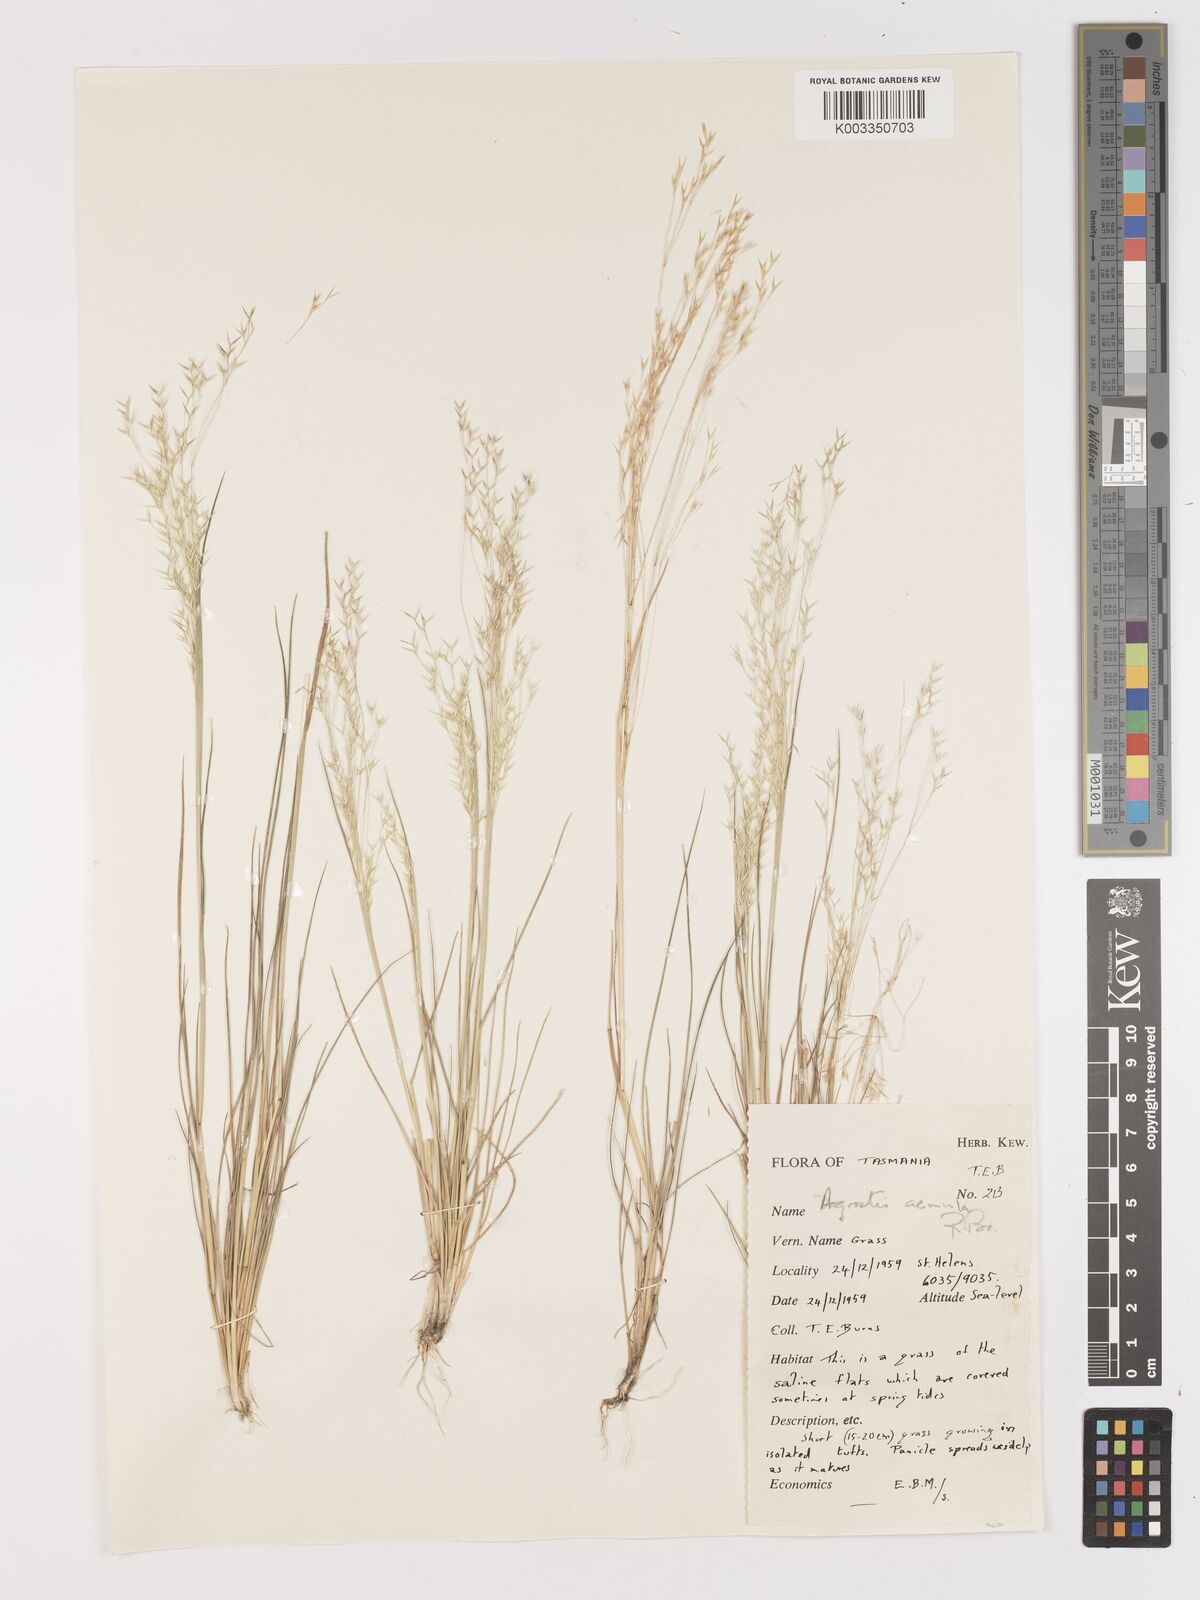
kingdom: Plantae
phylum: Tracheophyta
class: Liliopsida
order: Poales
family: Poaceae
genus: Lachnagrostis
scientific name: Lachnagrostis aemula
